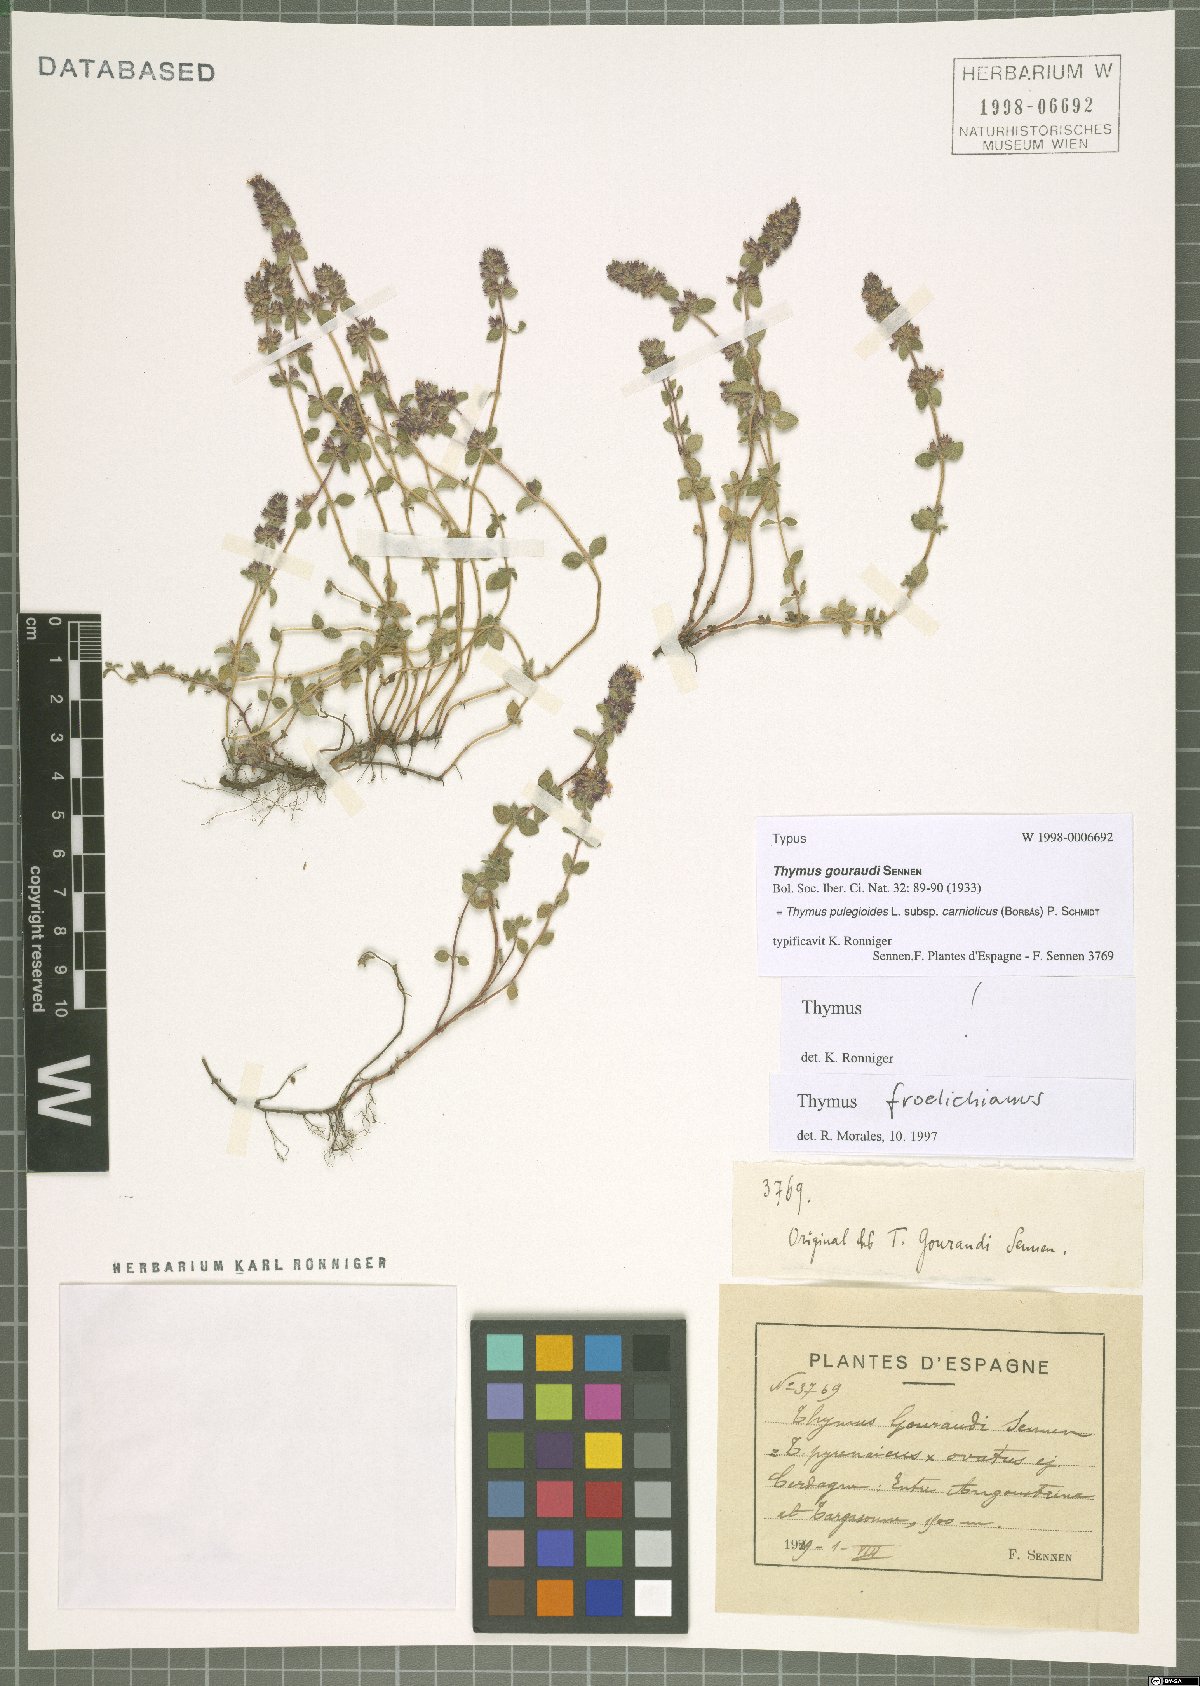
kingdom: Plantae
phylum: Tracheophyta
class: Magnoliopsida
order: Lamiales
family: Lamiaceae
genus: Thymus
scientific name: Thymus pannonicus
